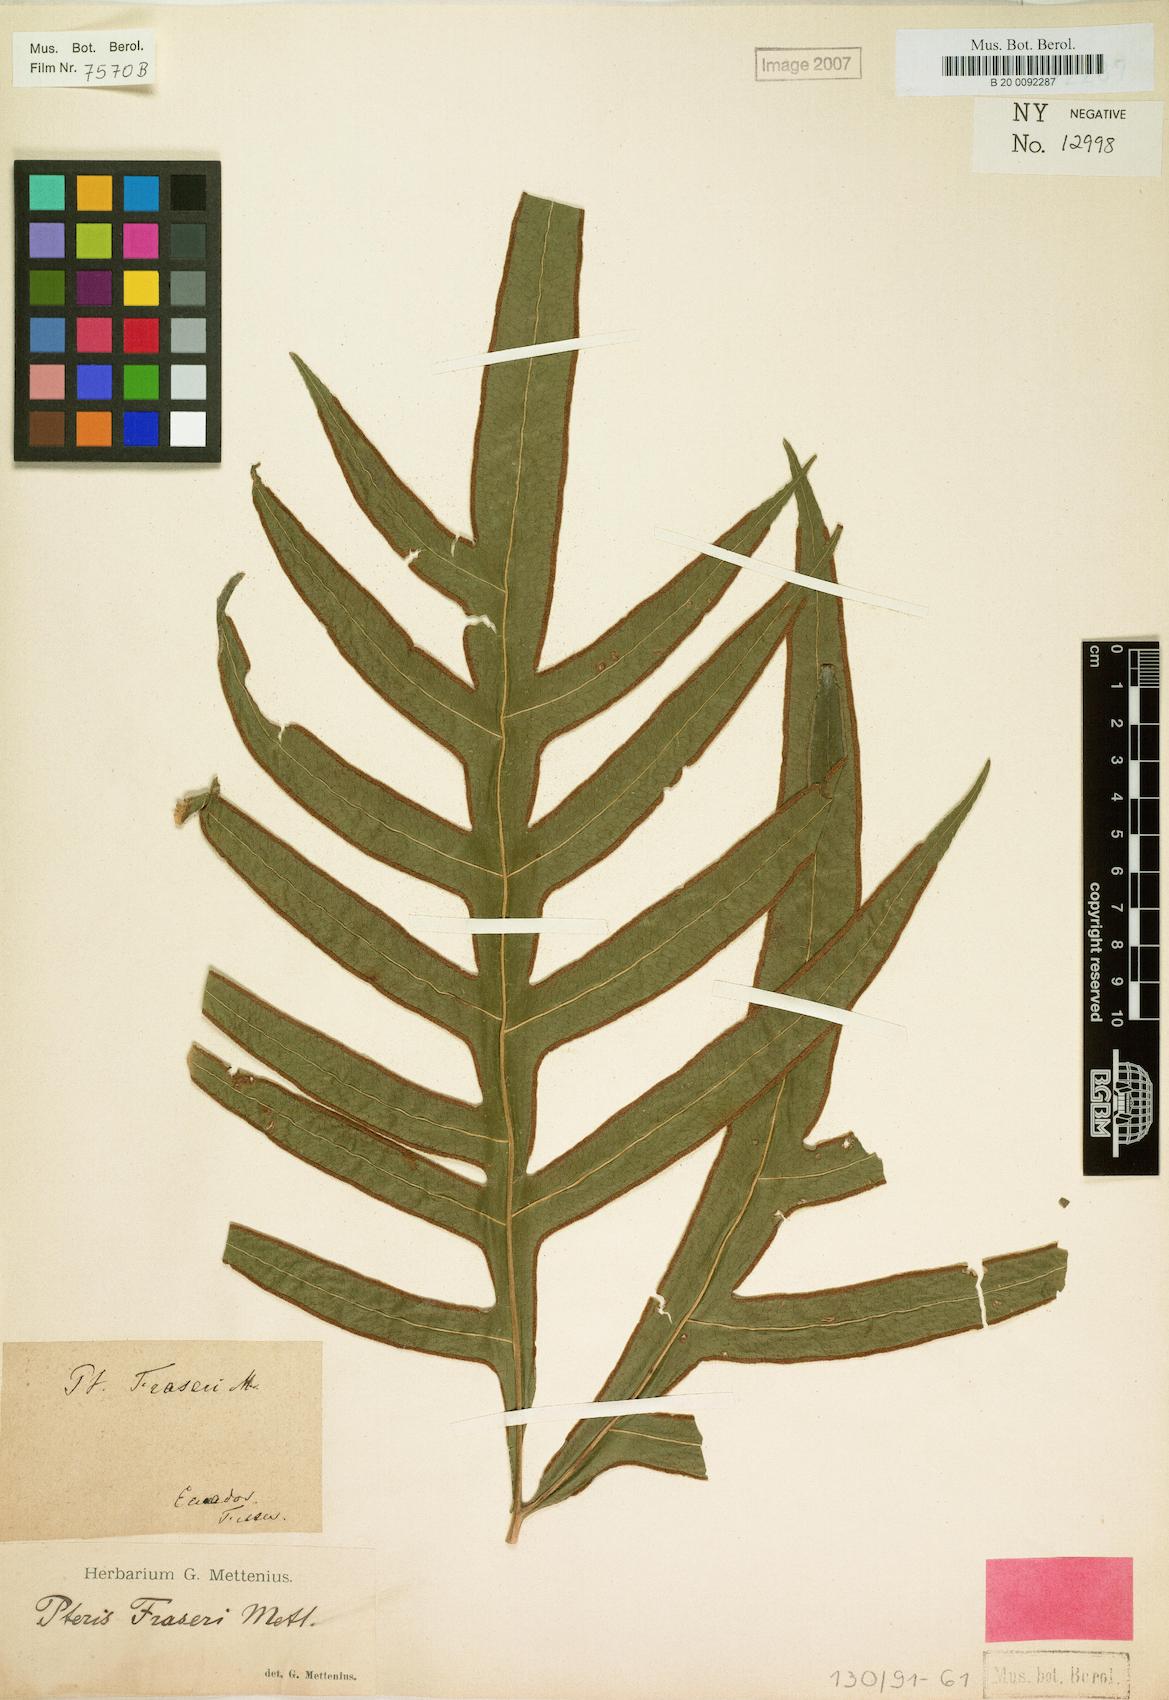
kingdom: Plantae
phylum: Tracheophyta
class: Polypodiopsida
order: Polypodiales
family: Pteridaceae
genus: Pteris
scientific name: Pteris fraseri
